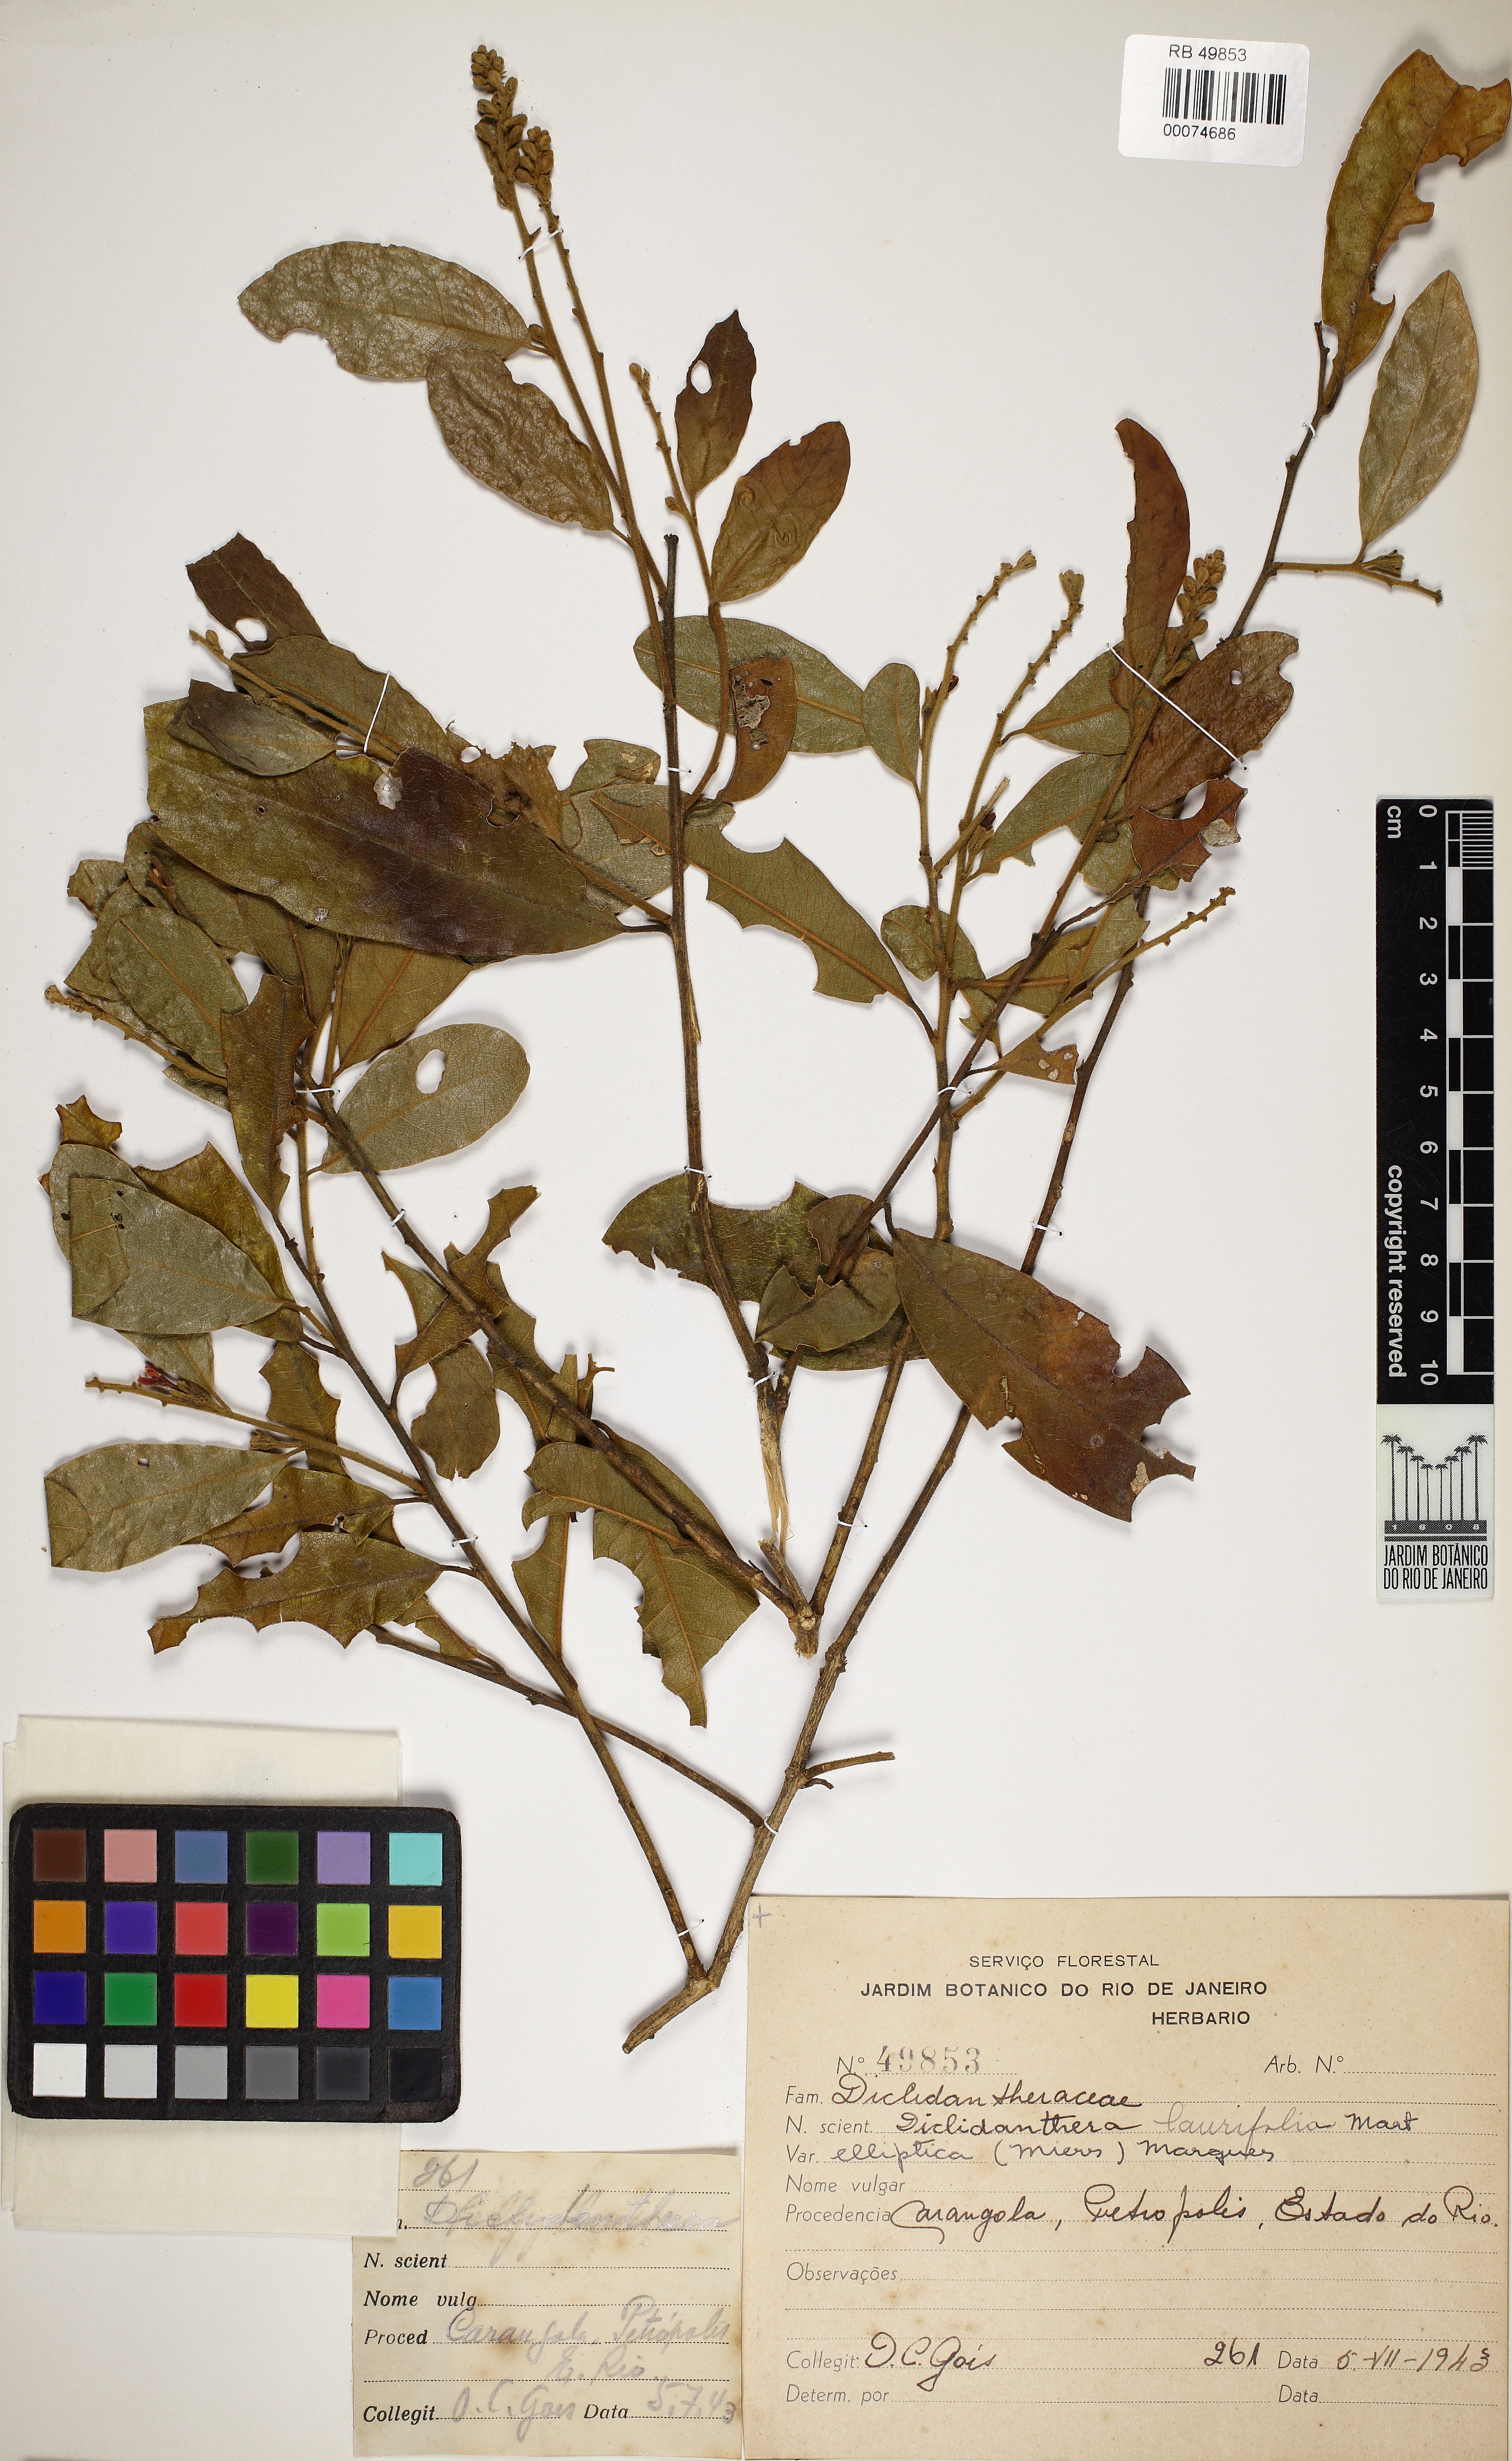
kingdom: Plantae
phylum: Tracheophyta
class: Magnoliopsida
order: Fabales
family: Polygalaceae
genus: Diclidanthera
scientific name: Diclidanthera laurifolia
